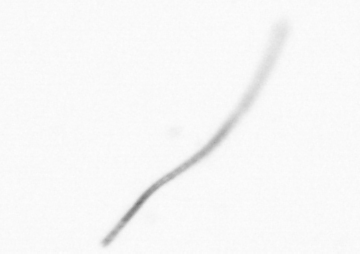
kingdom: Chromista
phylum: Ochrophyta
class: Bacillariophyceae
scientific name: Bacillariophyceae
